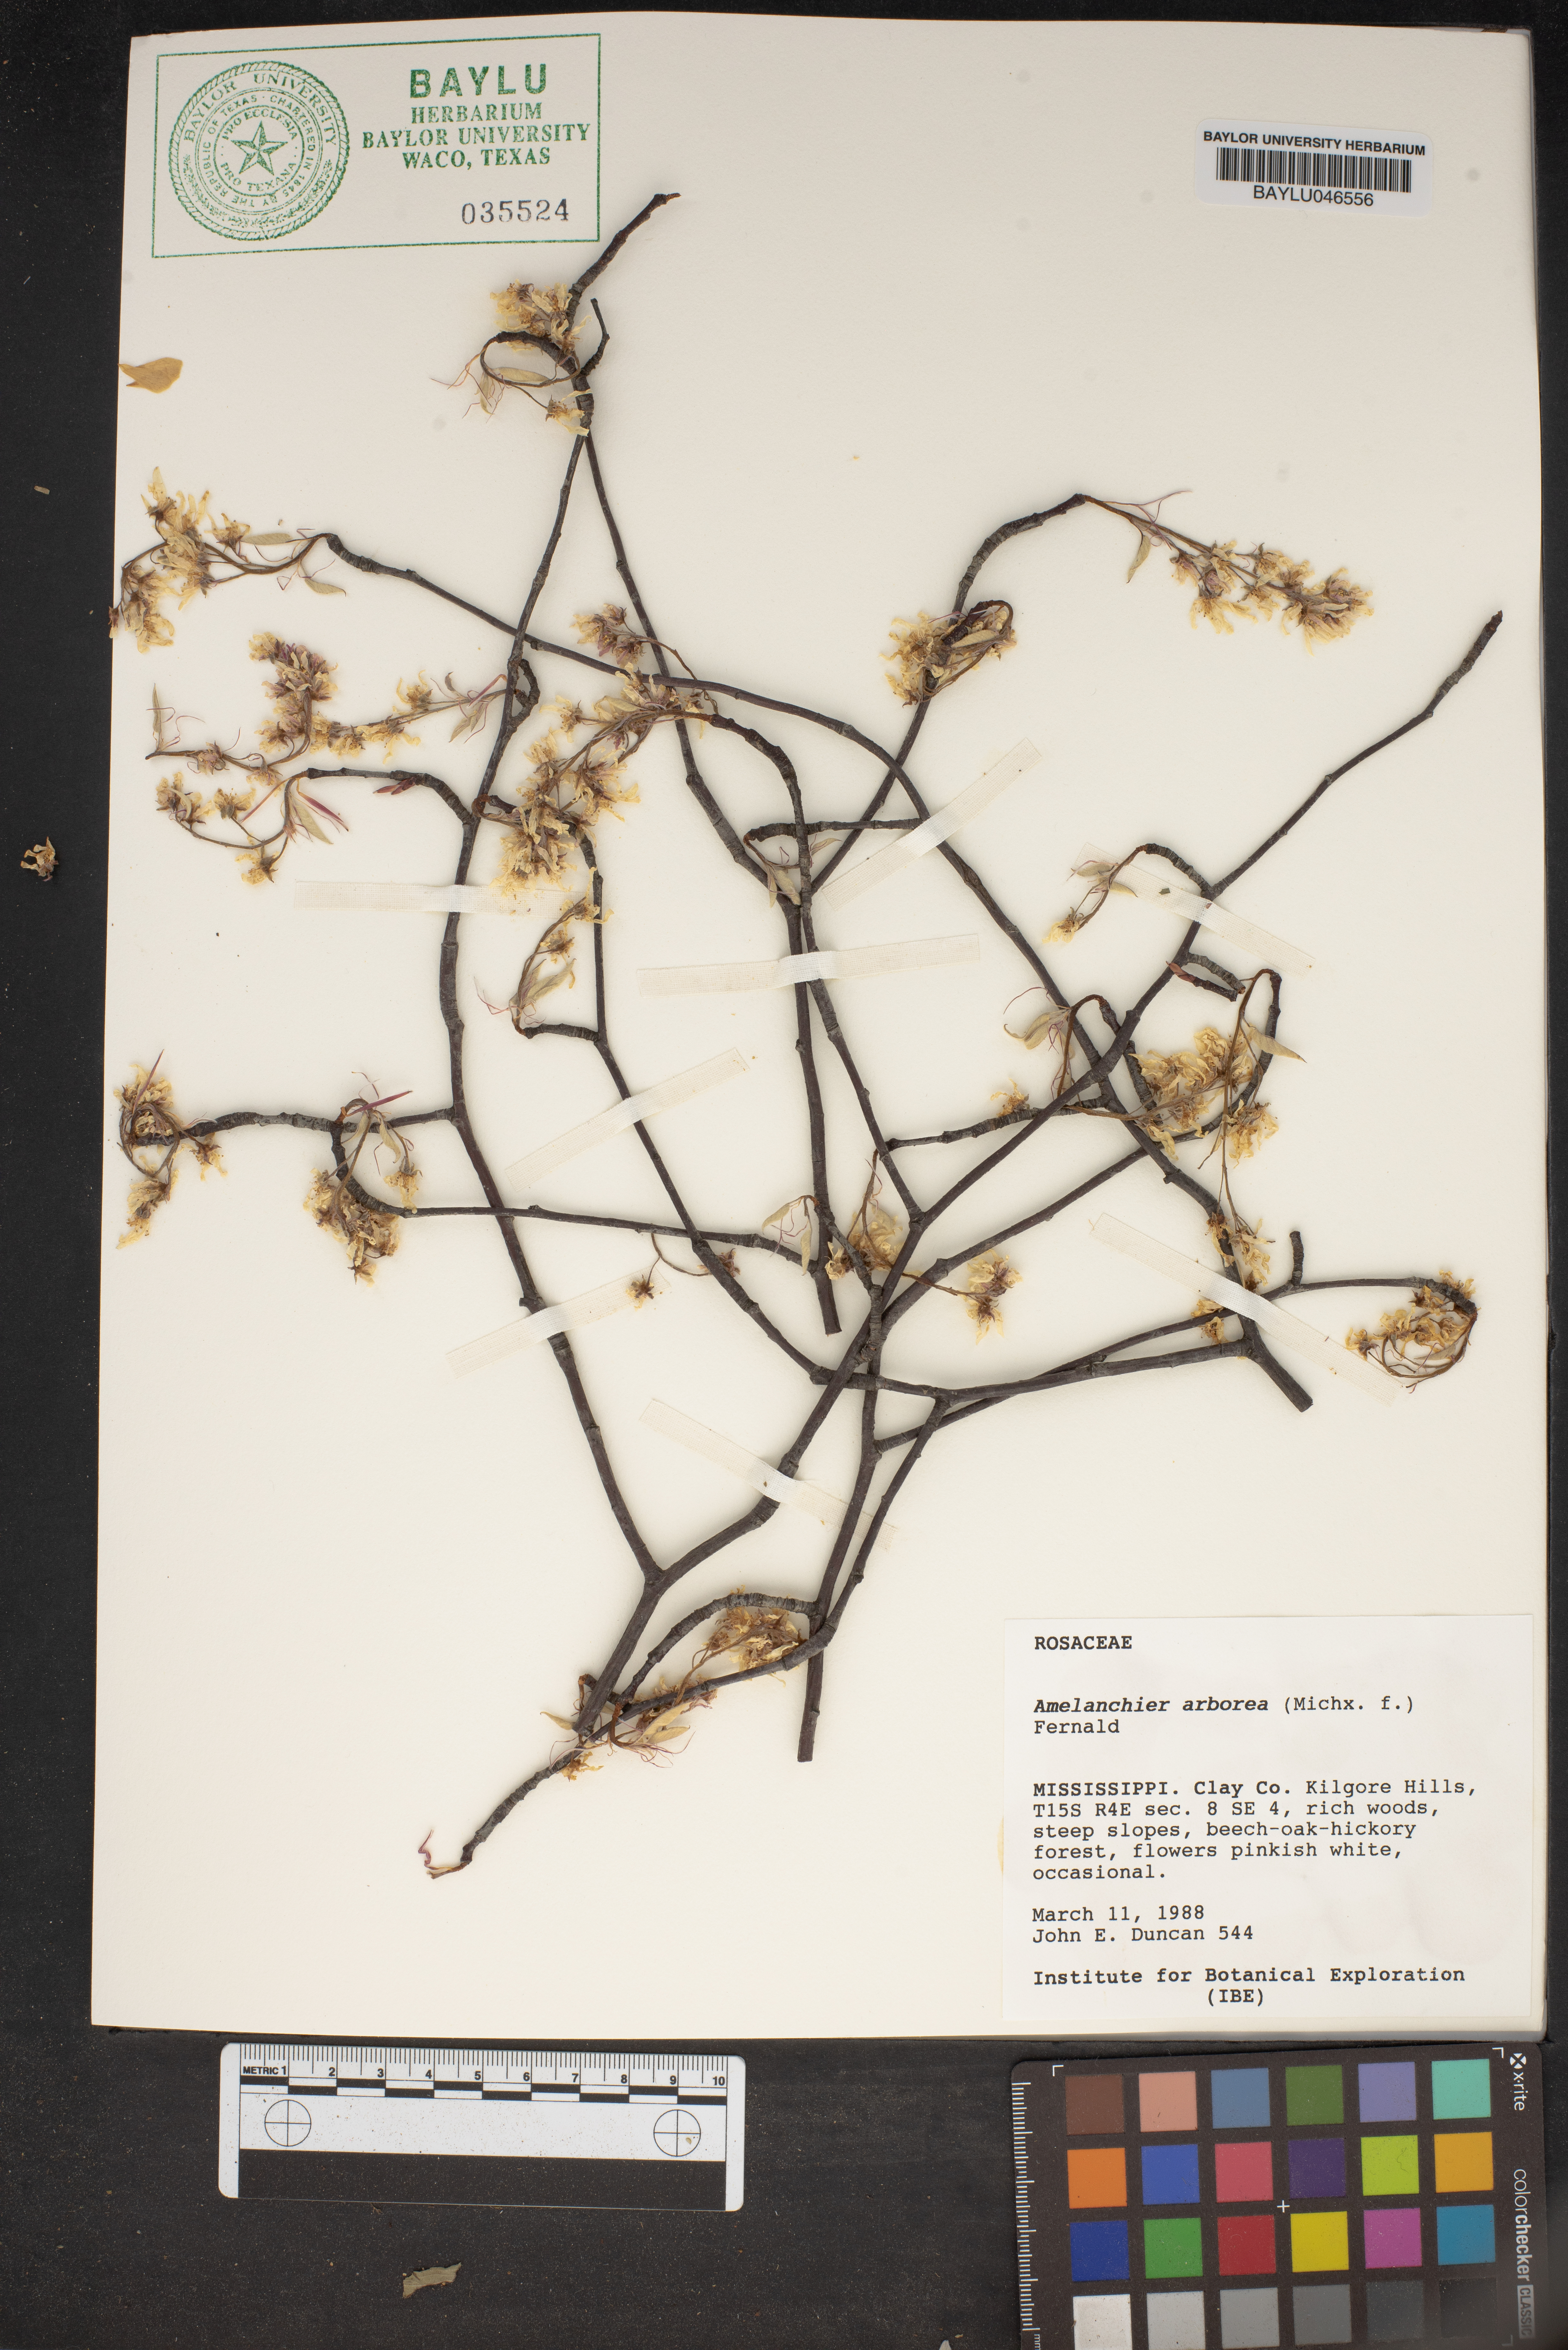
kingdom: Plantae
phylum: Tracheophyta
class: Magnoliopsida
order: Rosales
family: Rosaceae
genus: Amelanchier
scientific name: Amelanchier arborea
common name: Downy serviceberry
